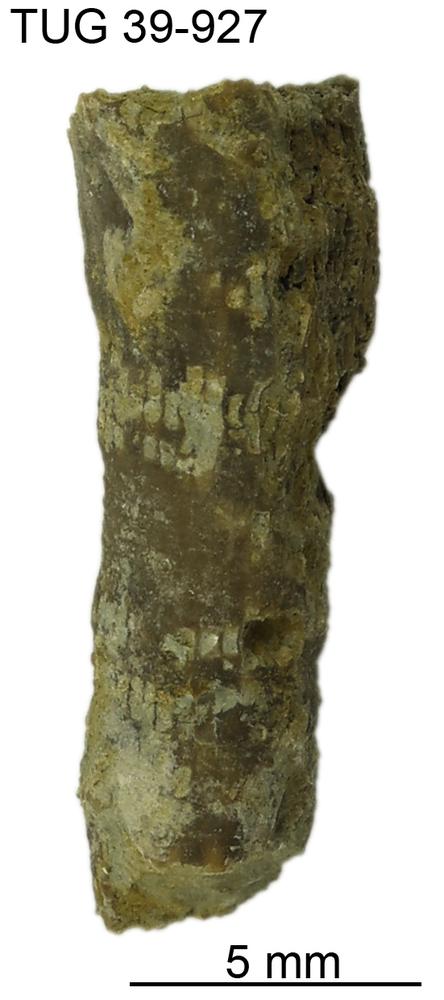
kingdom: Animalia
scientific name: Animalia
